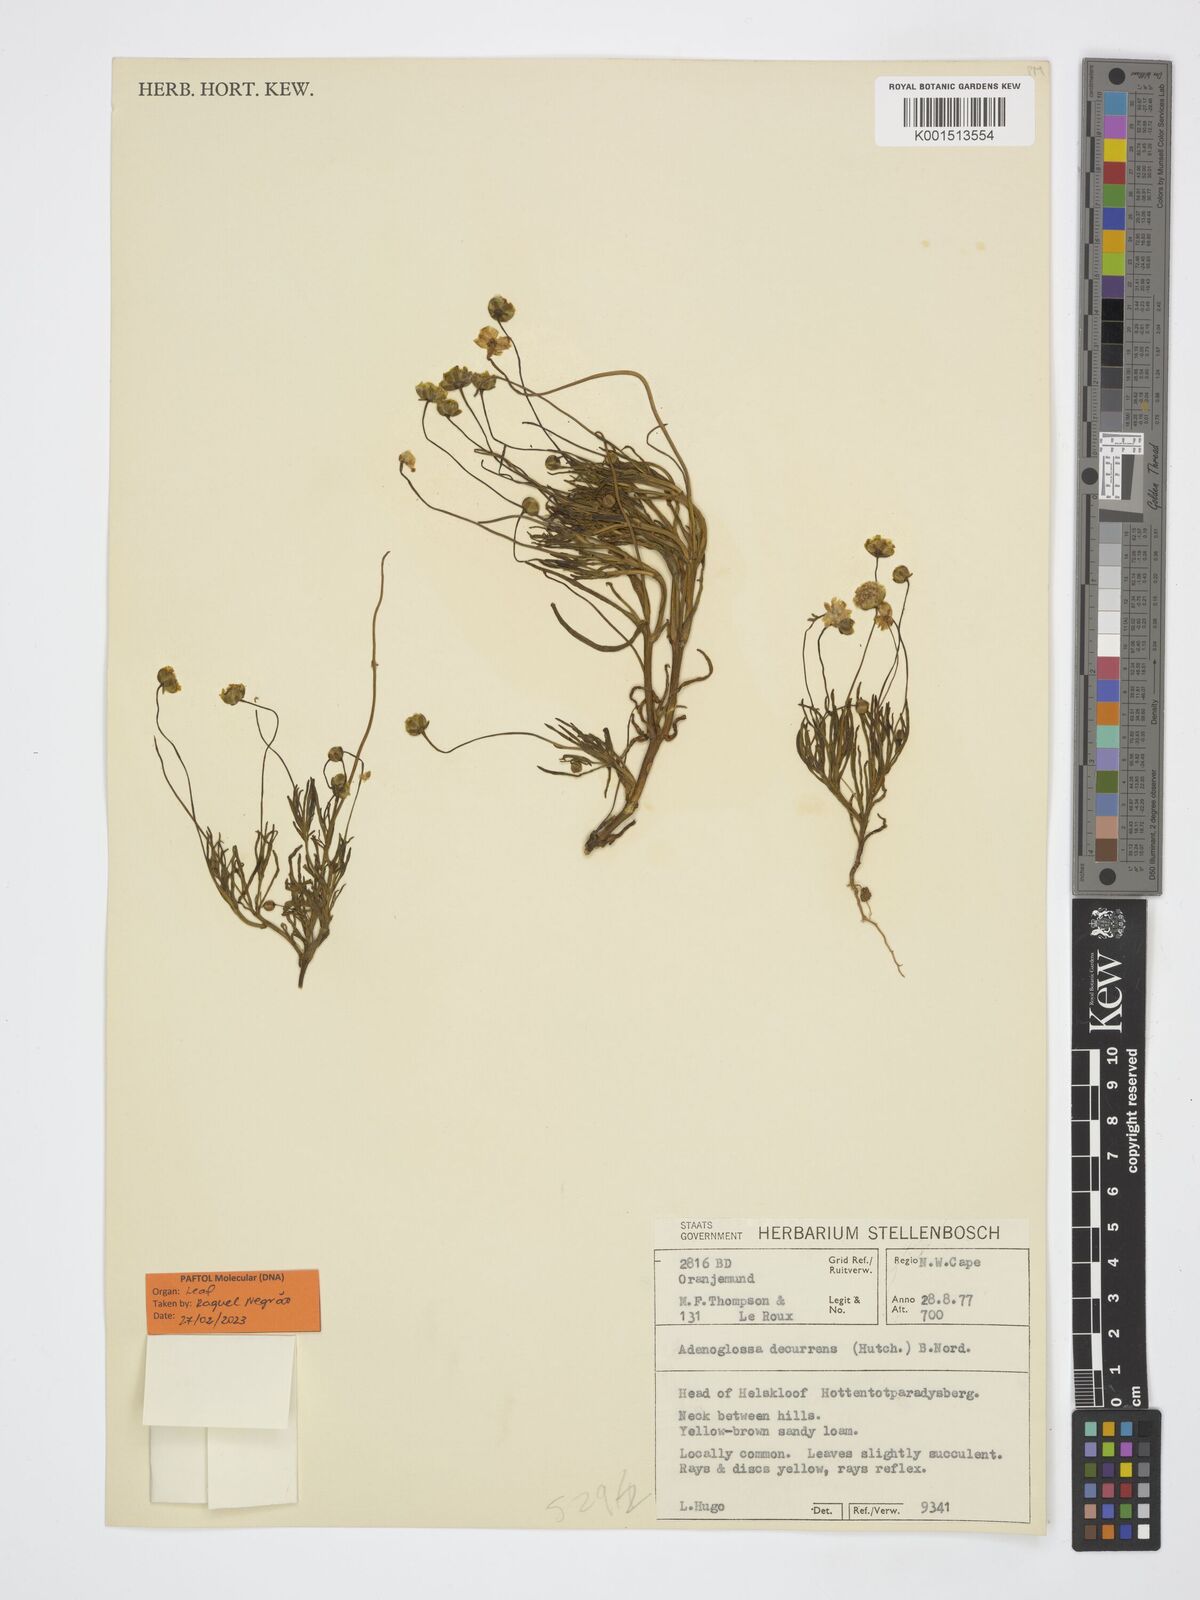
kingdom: Plantae
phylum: Tracheophyta
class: Magnoliopsida
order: Asterales
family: Asteraceae
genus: Adenoglossa
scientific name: Adenoglossa decurrens
